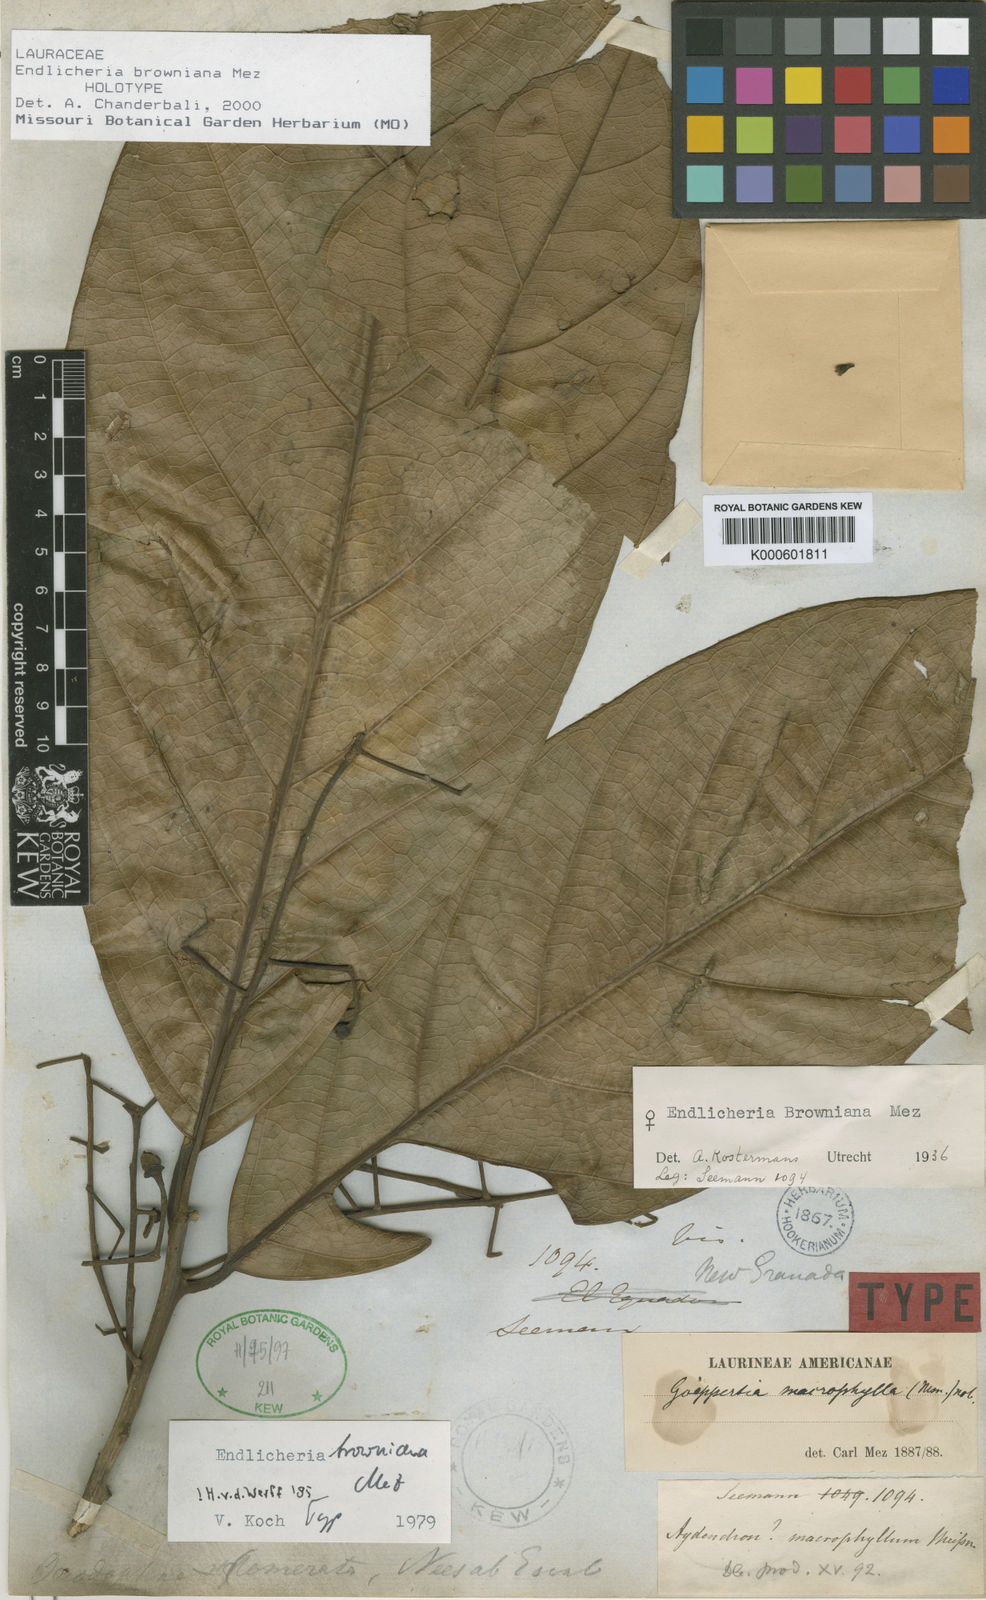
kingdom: Plantae
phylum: Tracheophyta
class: Magnoliopsida
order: Laurales
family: Lauraceae
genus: Endlicheria
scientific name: Endlicheria browniana
